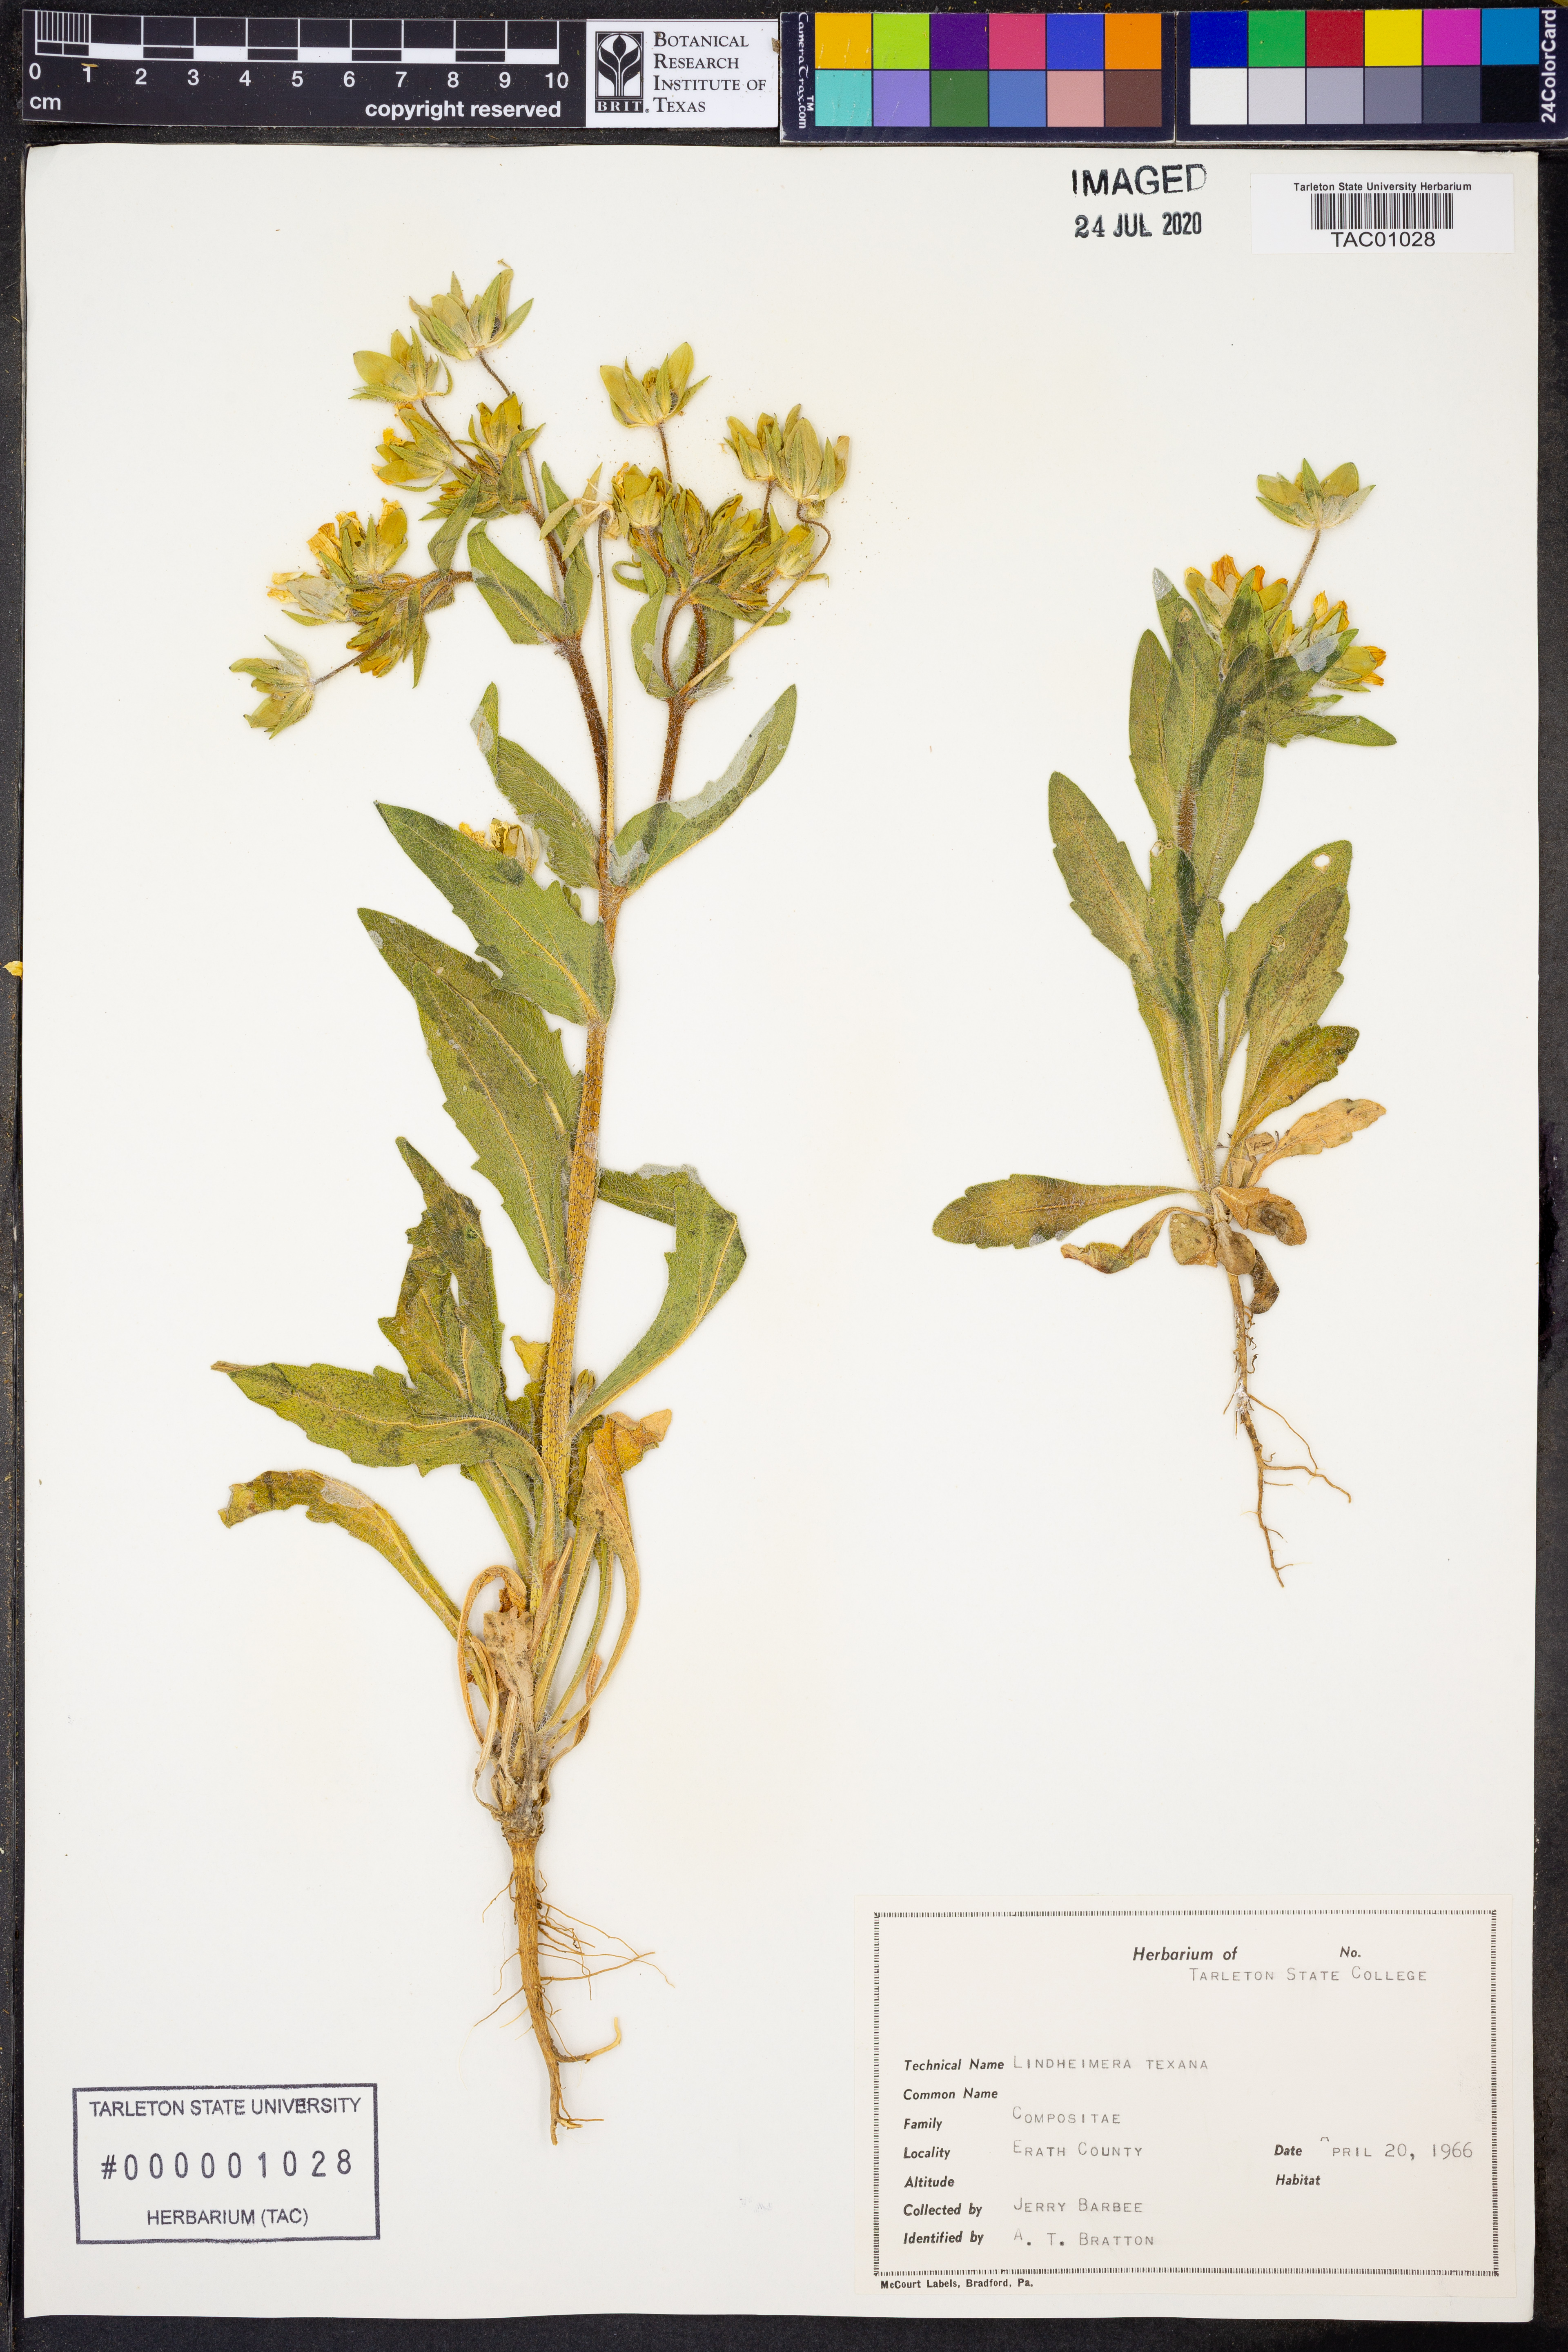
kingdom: Plantae
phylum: Tracheophyta
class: Magnoliopsida
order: Asterales
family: Asteraceae
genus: Lindheimera
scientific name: Lindheimera texana
